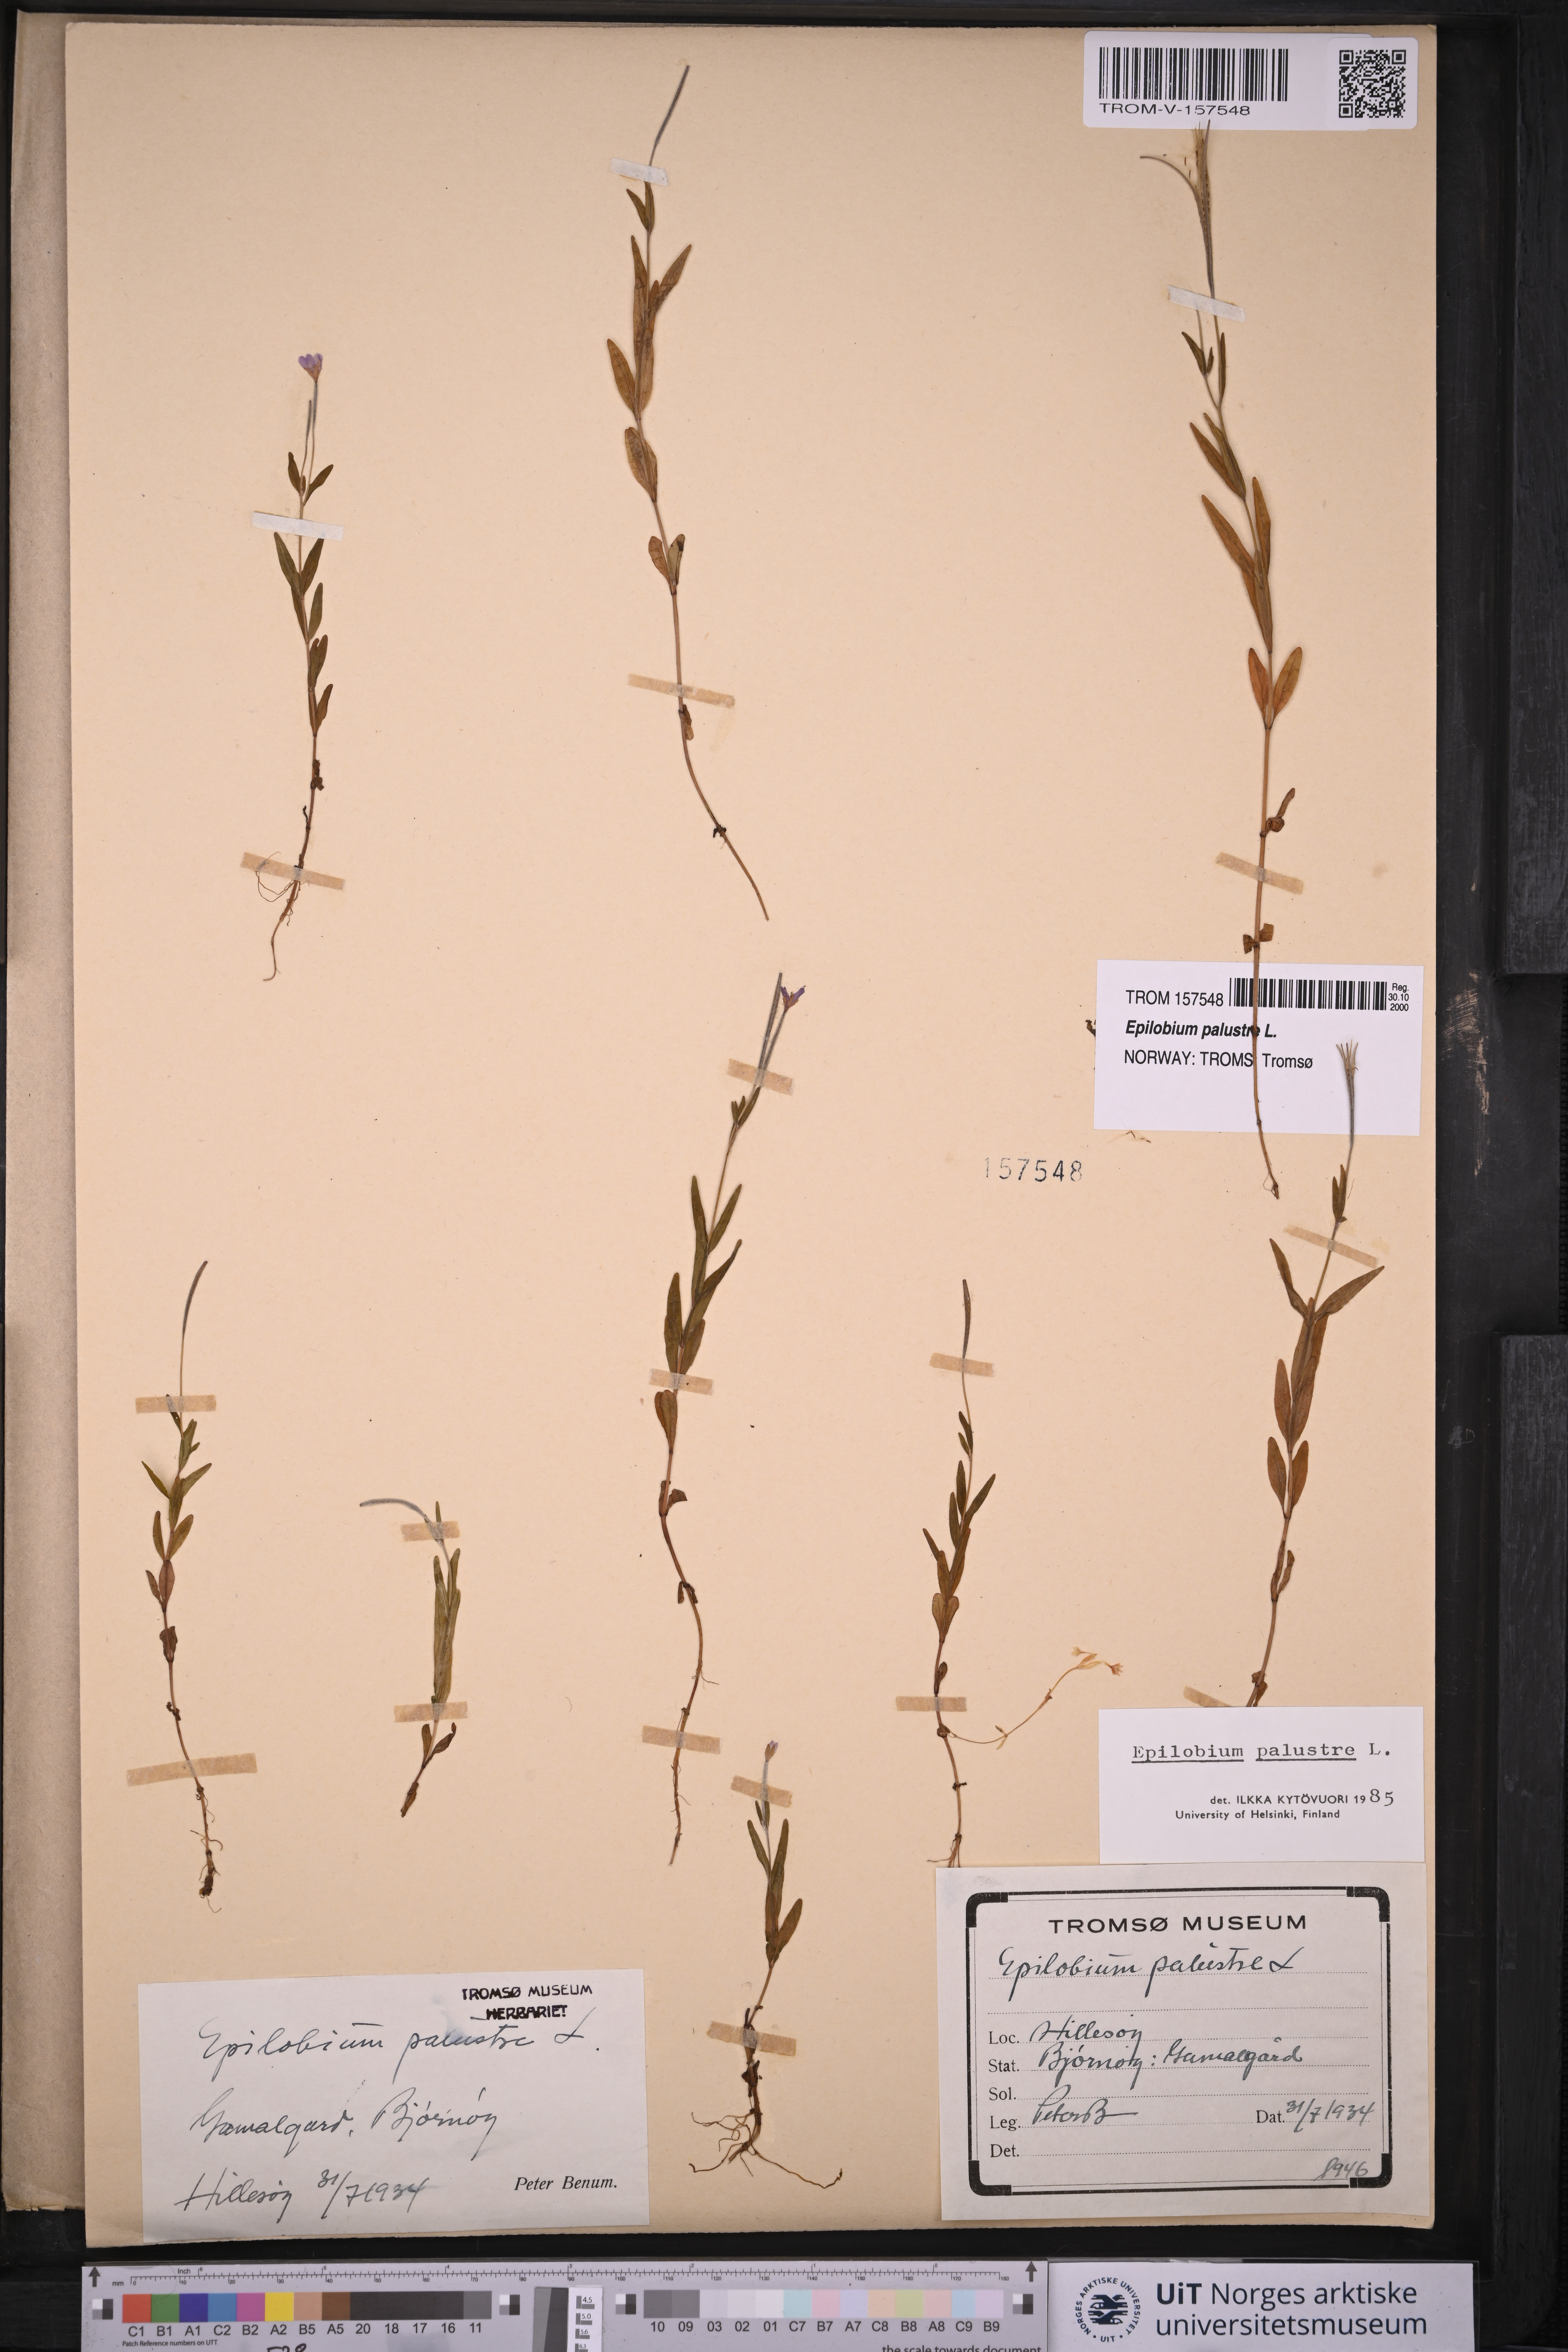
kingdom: Plantae
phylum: Tracheophyta
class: Magnoliopsida
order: Myrtales
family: Onagraceae
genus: Epilobium
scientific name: Epilobium palustre
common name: Marsh willowherb
